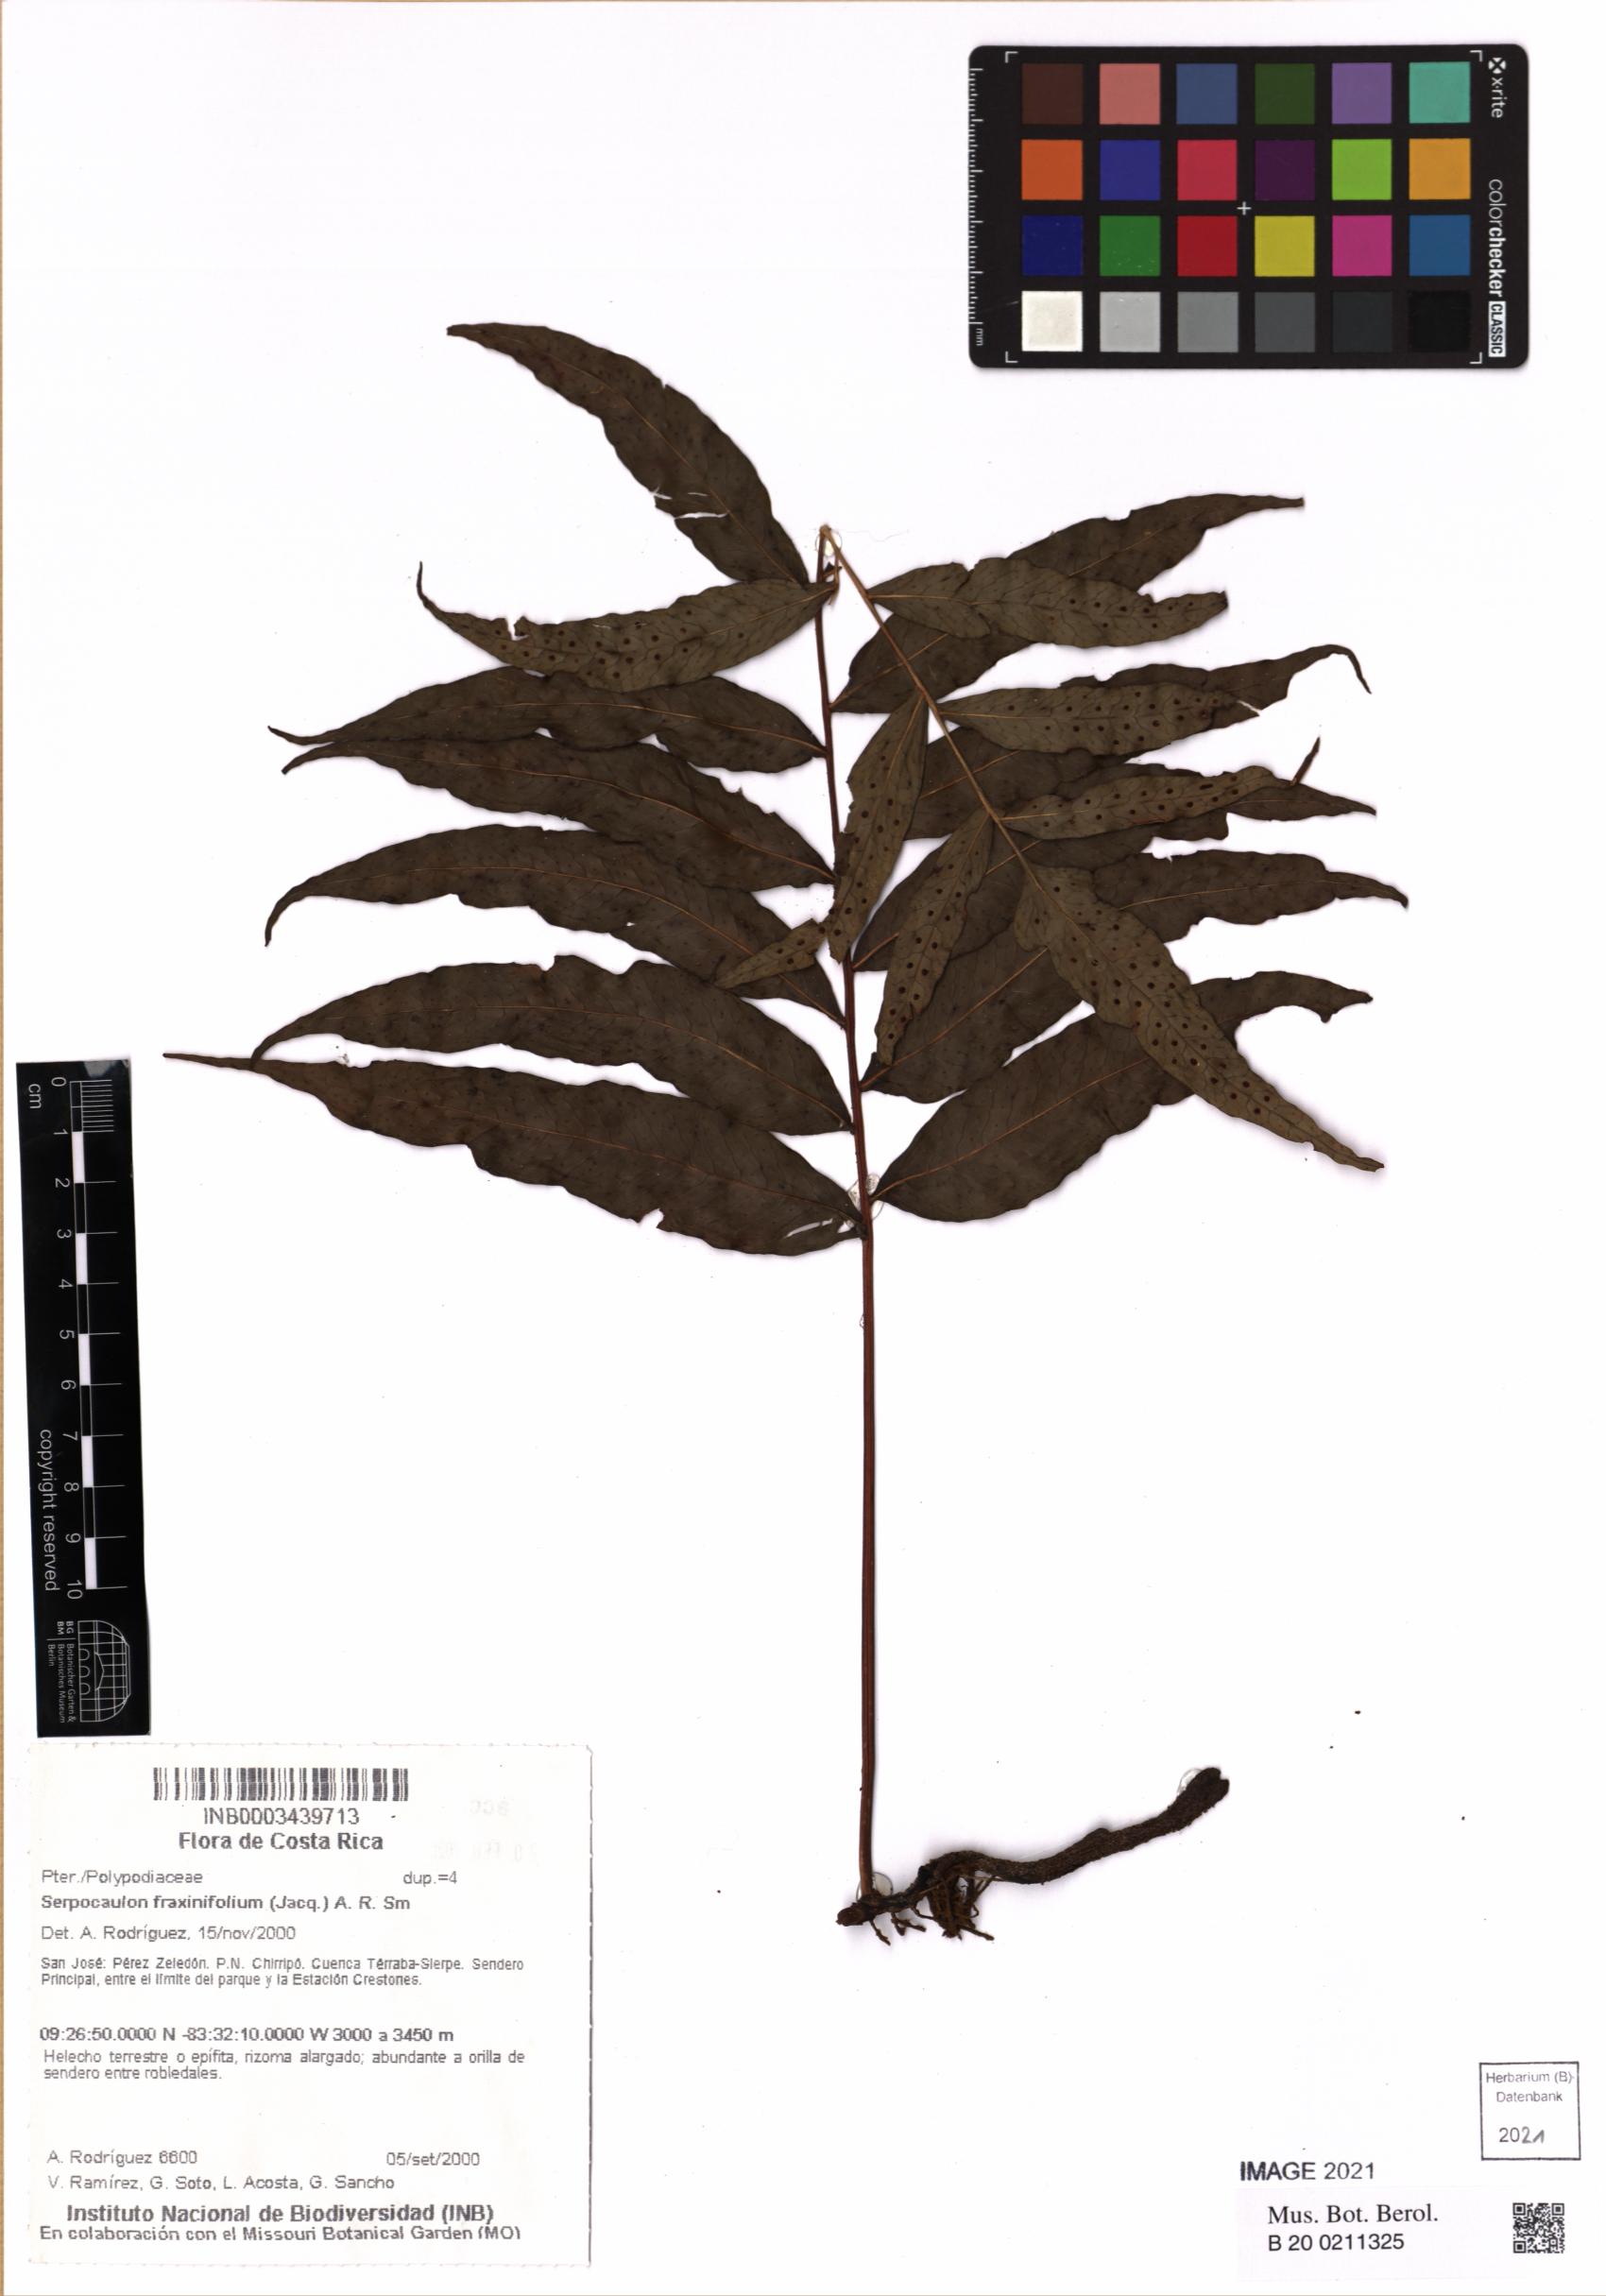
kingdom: Plantae
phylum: Tracheophyta
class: Polypodiopsida
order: Polypodiales
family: Polypodiaceae
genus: Serpocaulon
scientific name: Serpocaulon fraxinifolium
